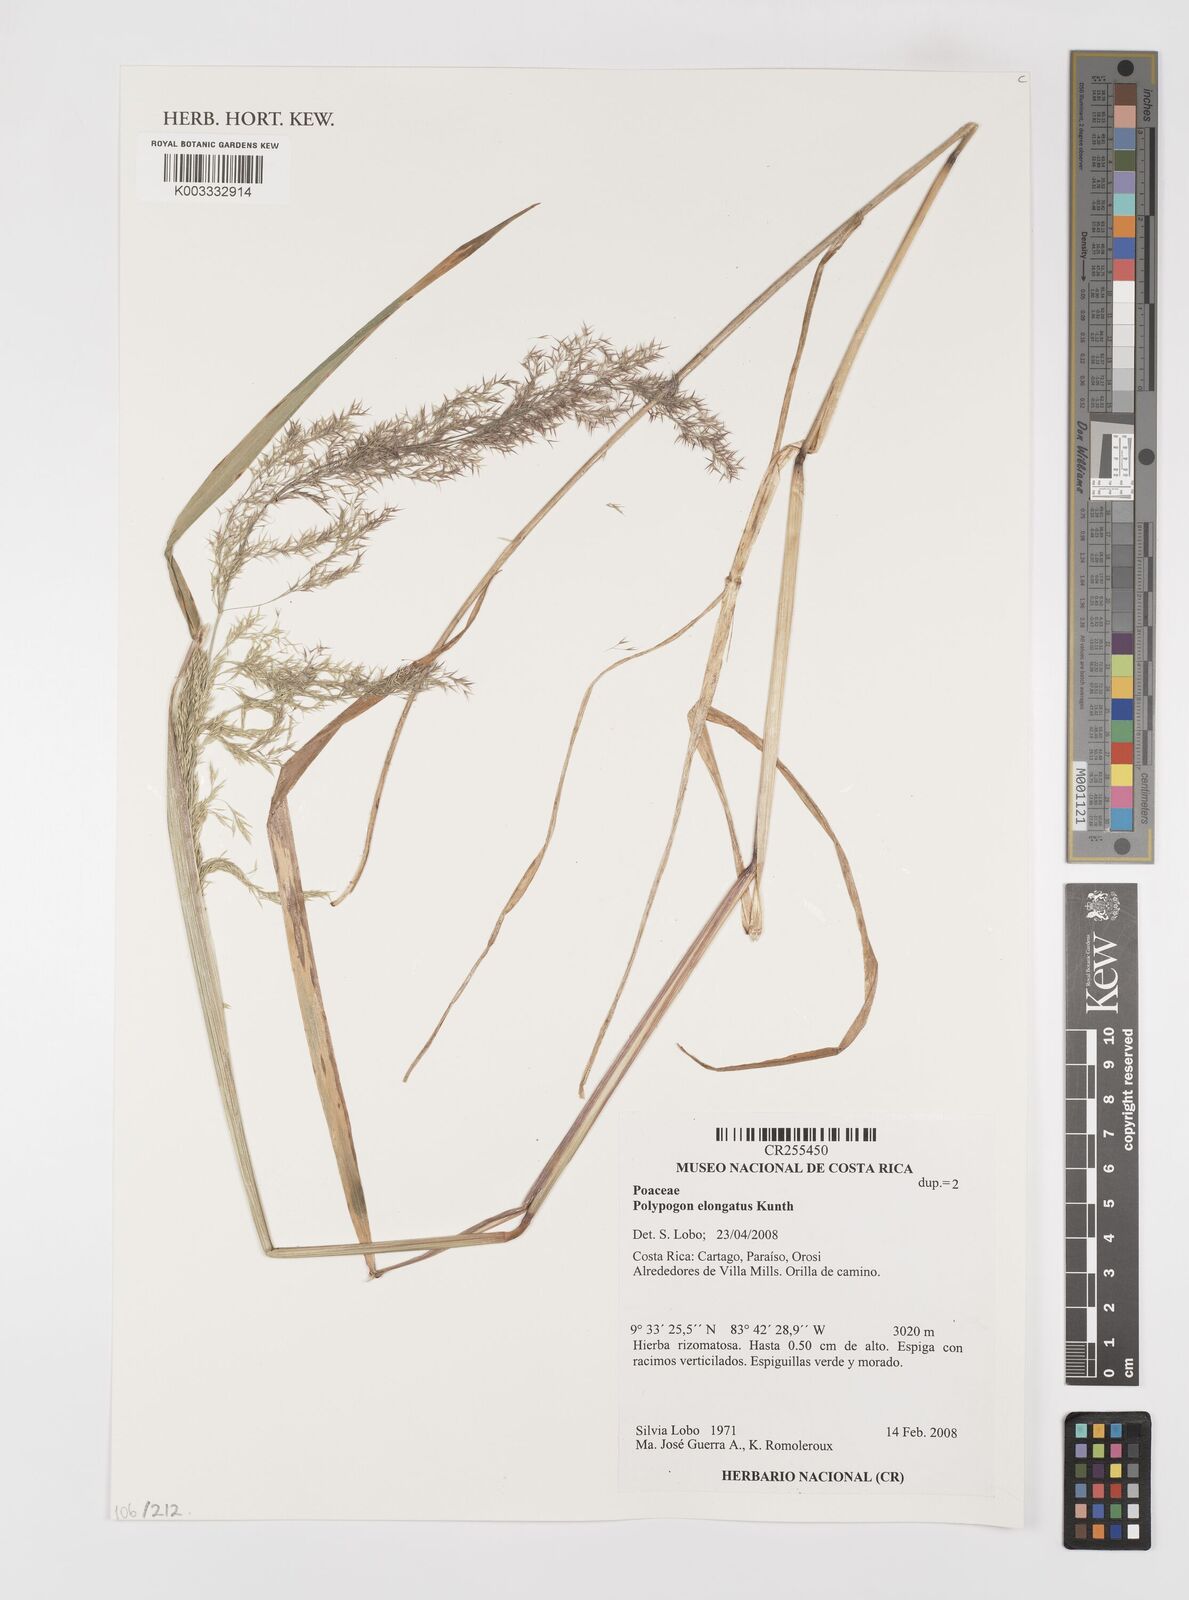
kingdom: Plantae
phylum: Tracheophyta
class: Liliopsida
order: Poales
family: Poaceae
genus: Polypogon
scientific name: Polypogon elongatus
